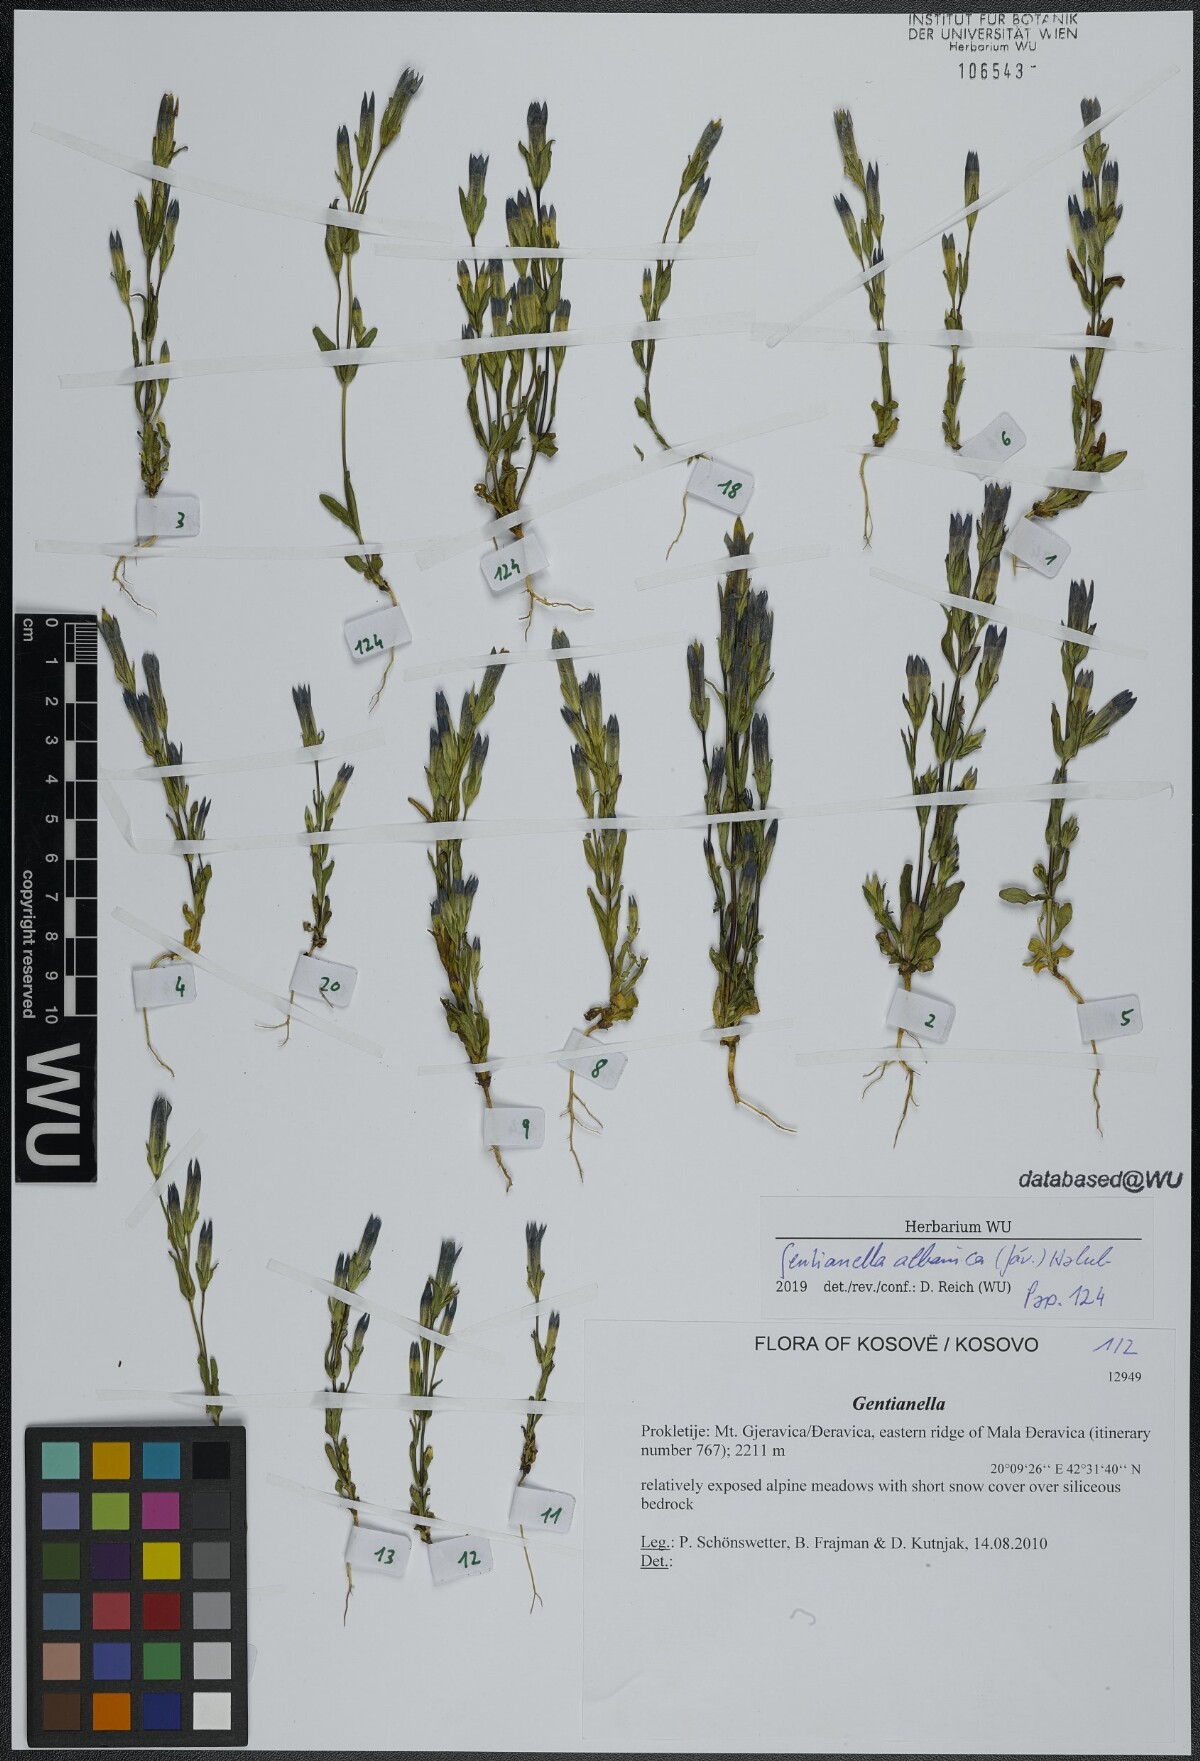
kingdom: Plantae
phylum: Tracheophyta
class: Magnoliopsida
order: Gentianales
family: Gentianaceae
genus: Gentianella
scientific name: Gentianella albanica
